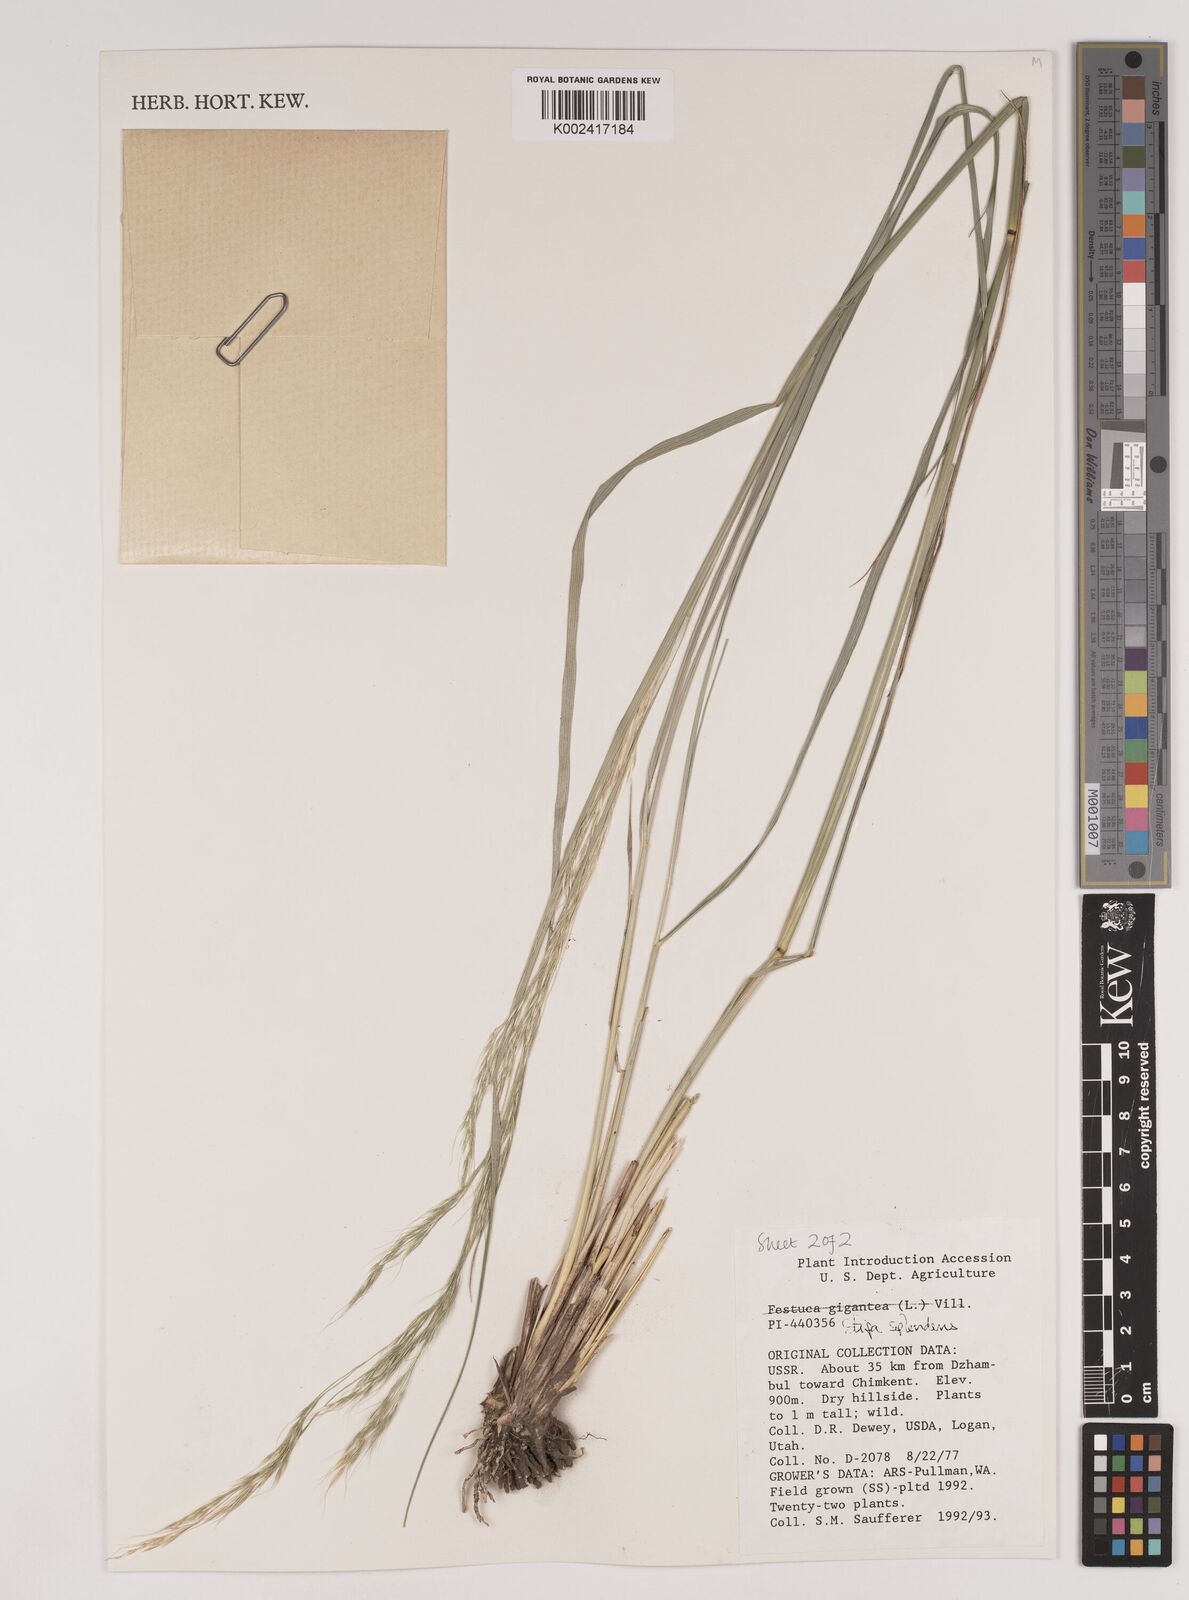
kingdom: Plantae
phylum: Tracheophyta
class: Liliopsida
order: Poales
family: Poaceae
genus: Neotrinia
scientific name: Neotrinia splendens
